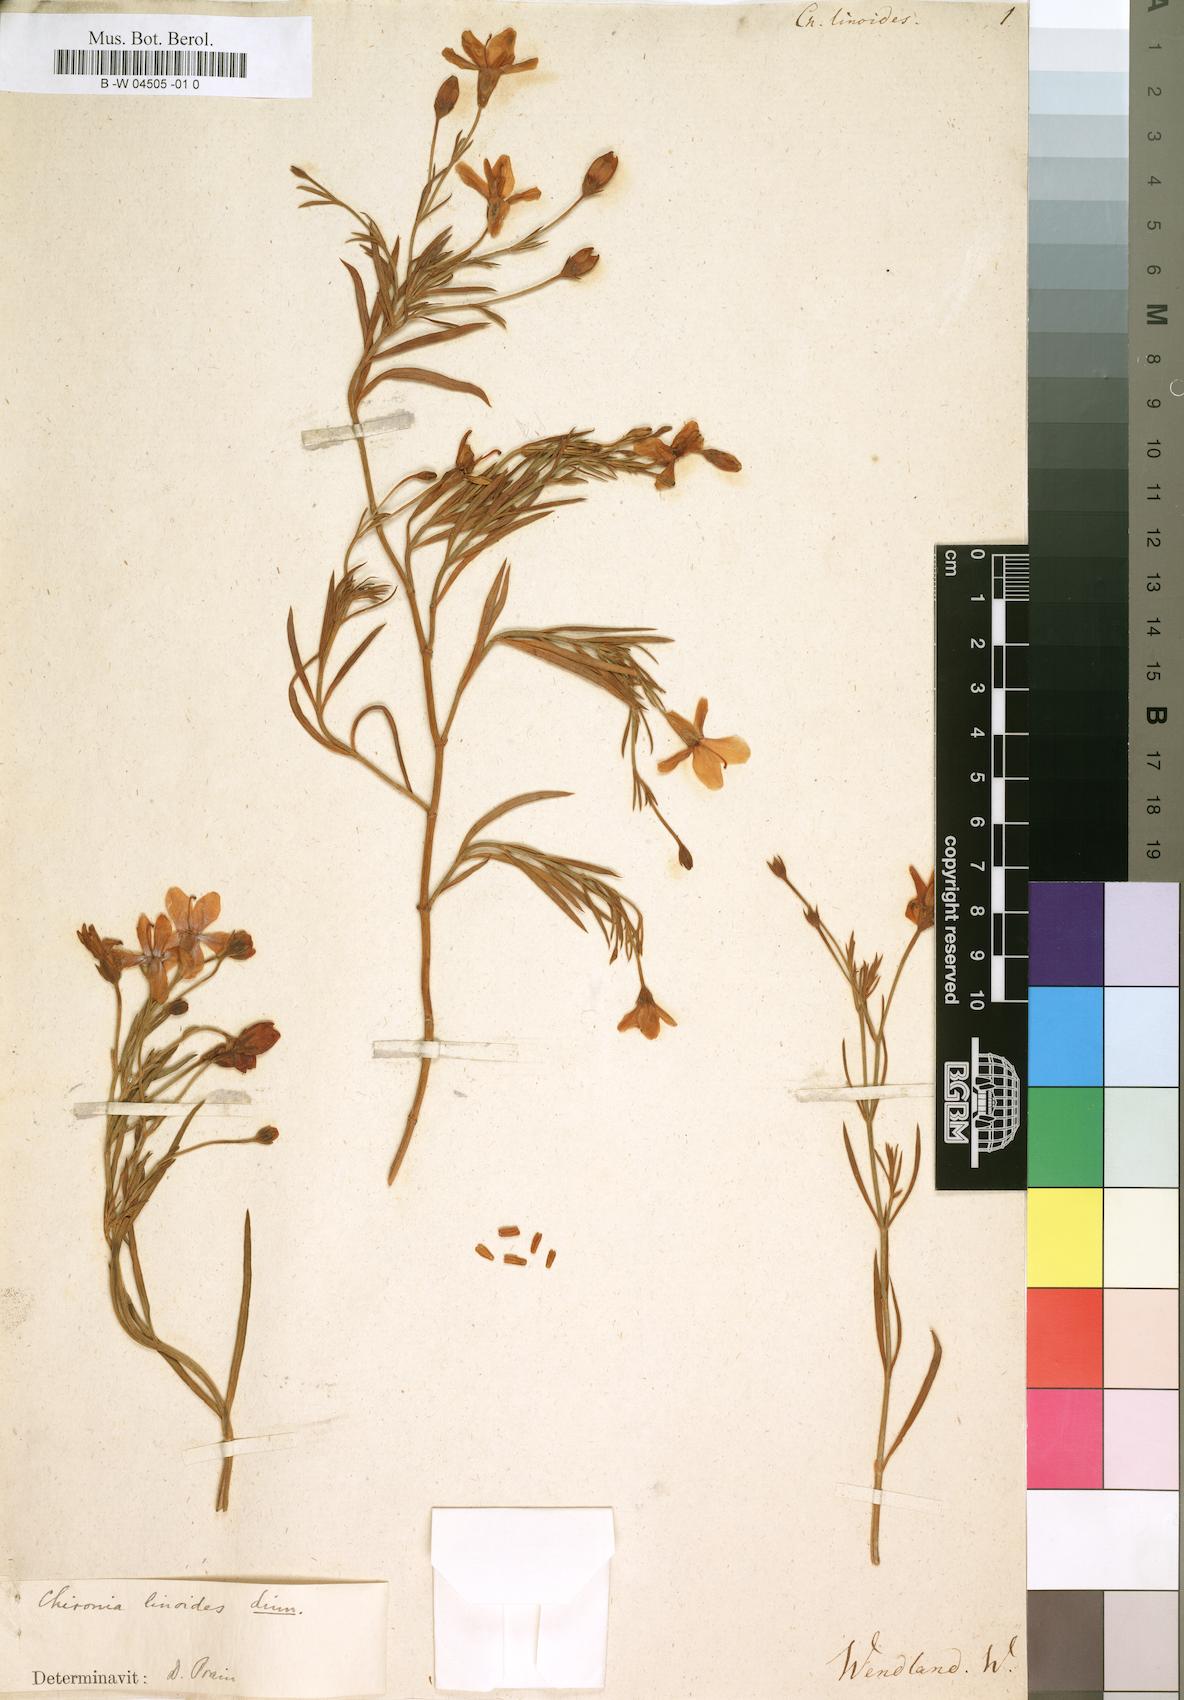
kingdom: Plantae
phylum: Tracheophyta
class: Magnoliopsida
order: Gentianales
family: Gentianaceae
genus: Chironia
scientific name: Chironia linoides
